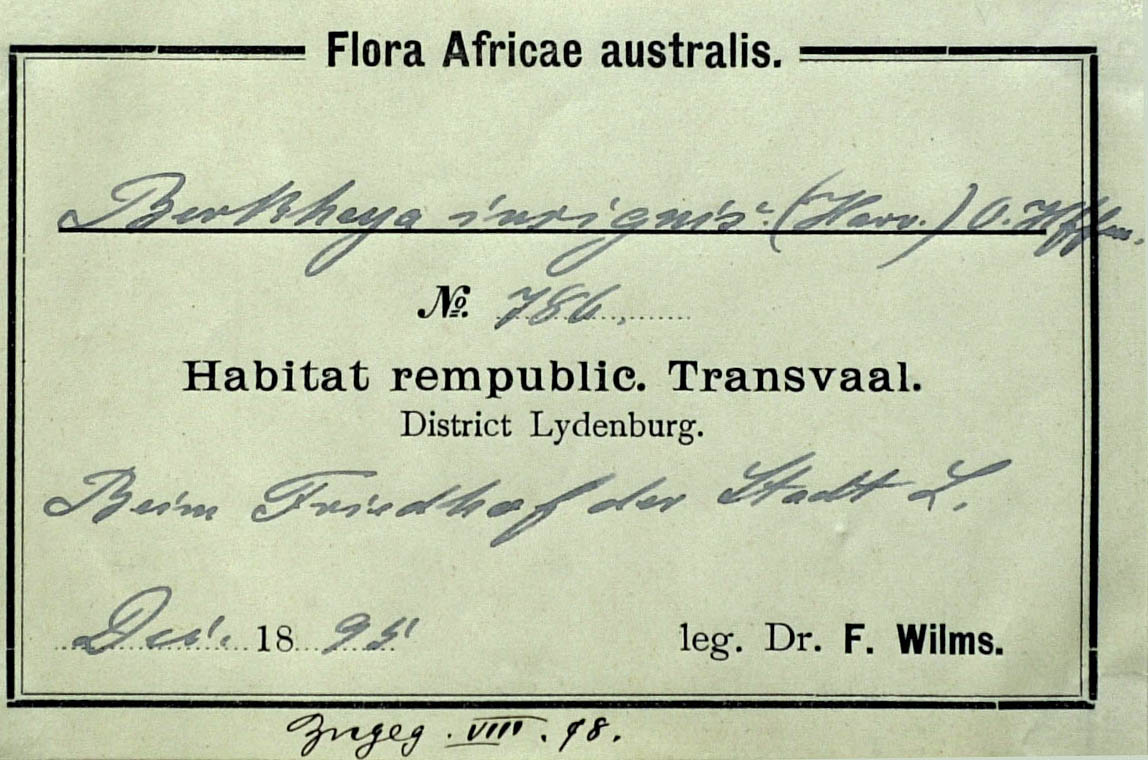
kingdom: Plantae
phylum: Tracheophyta
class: Magnoliopsida
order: Asterales
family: Asteraceae
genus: Berkheya
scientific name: Berkheya subulata
